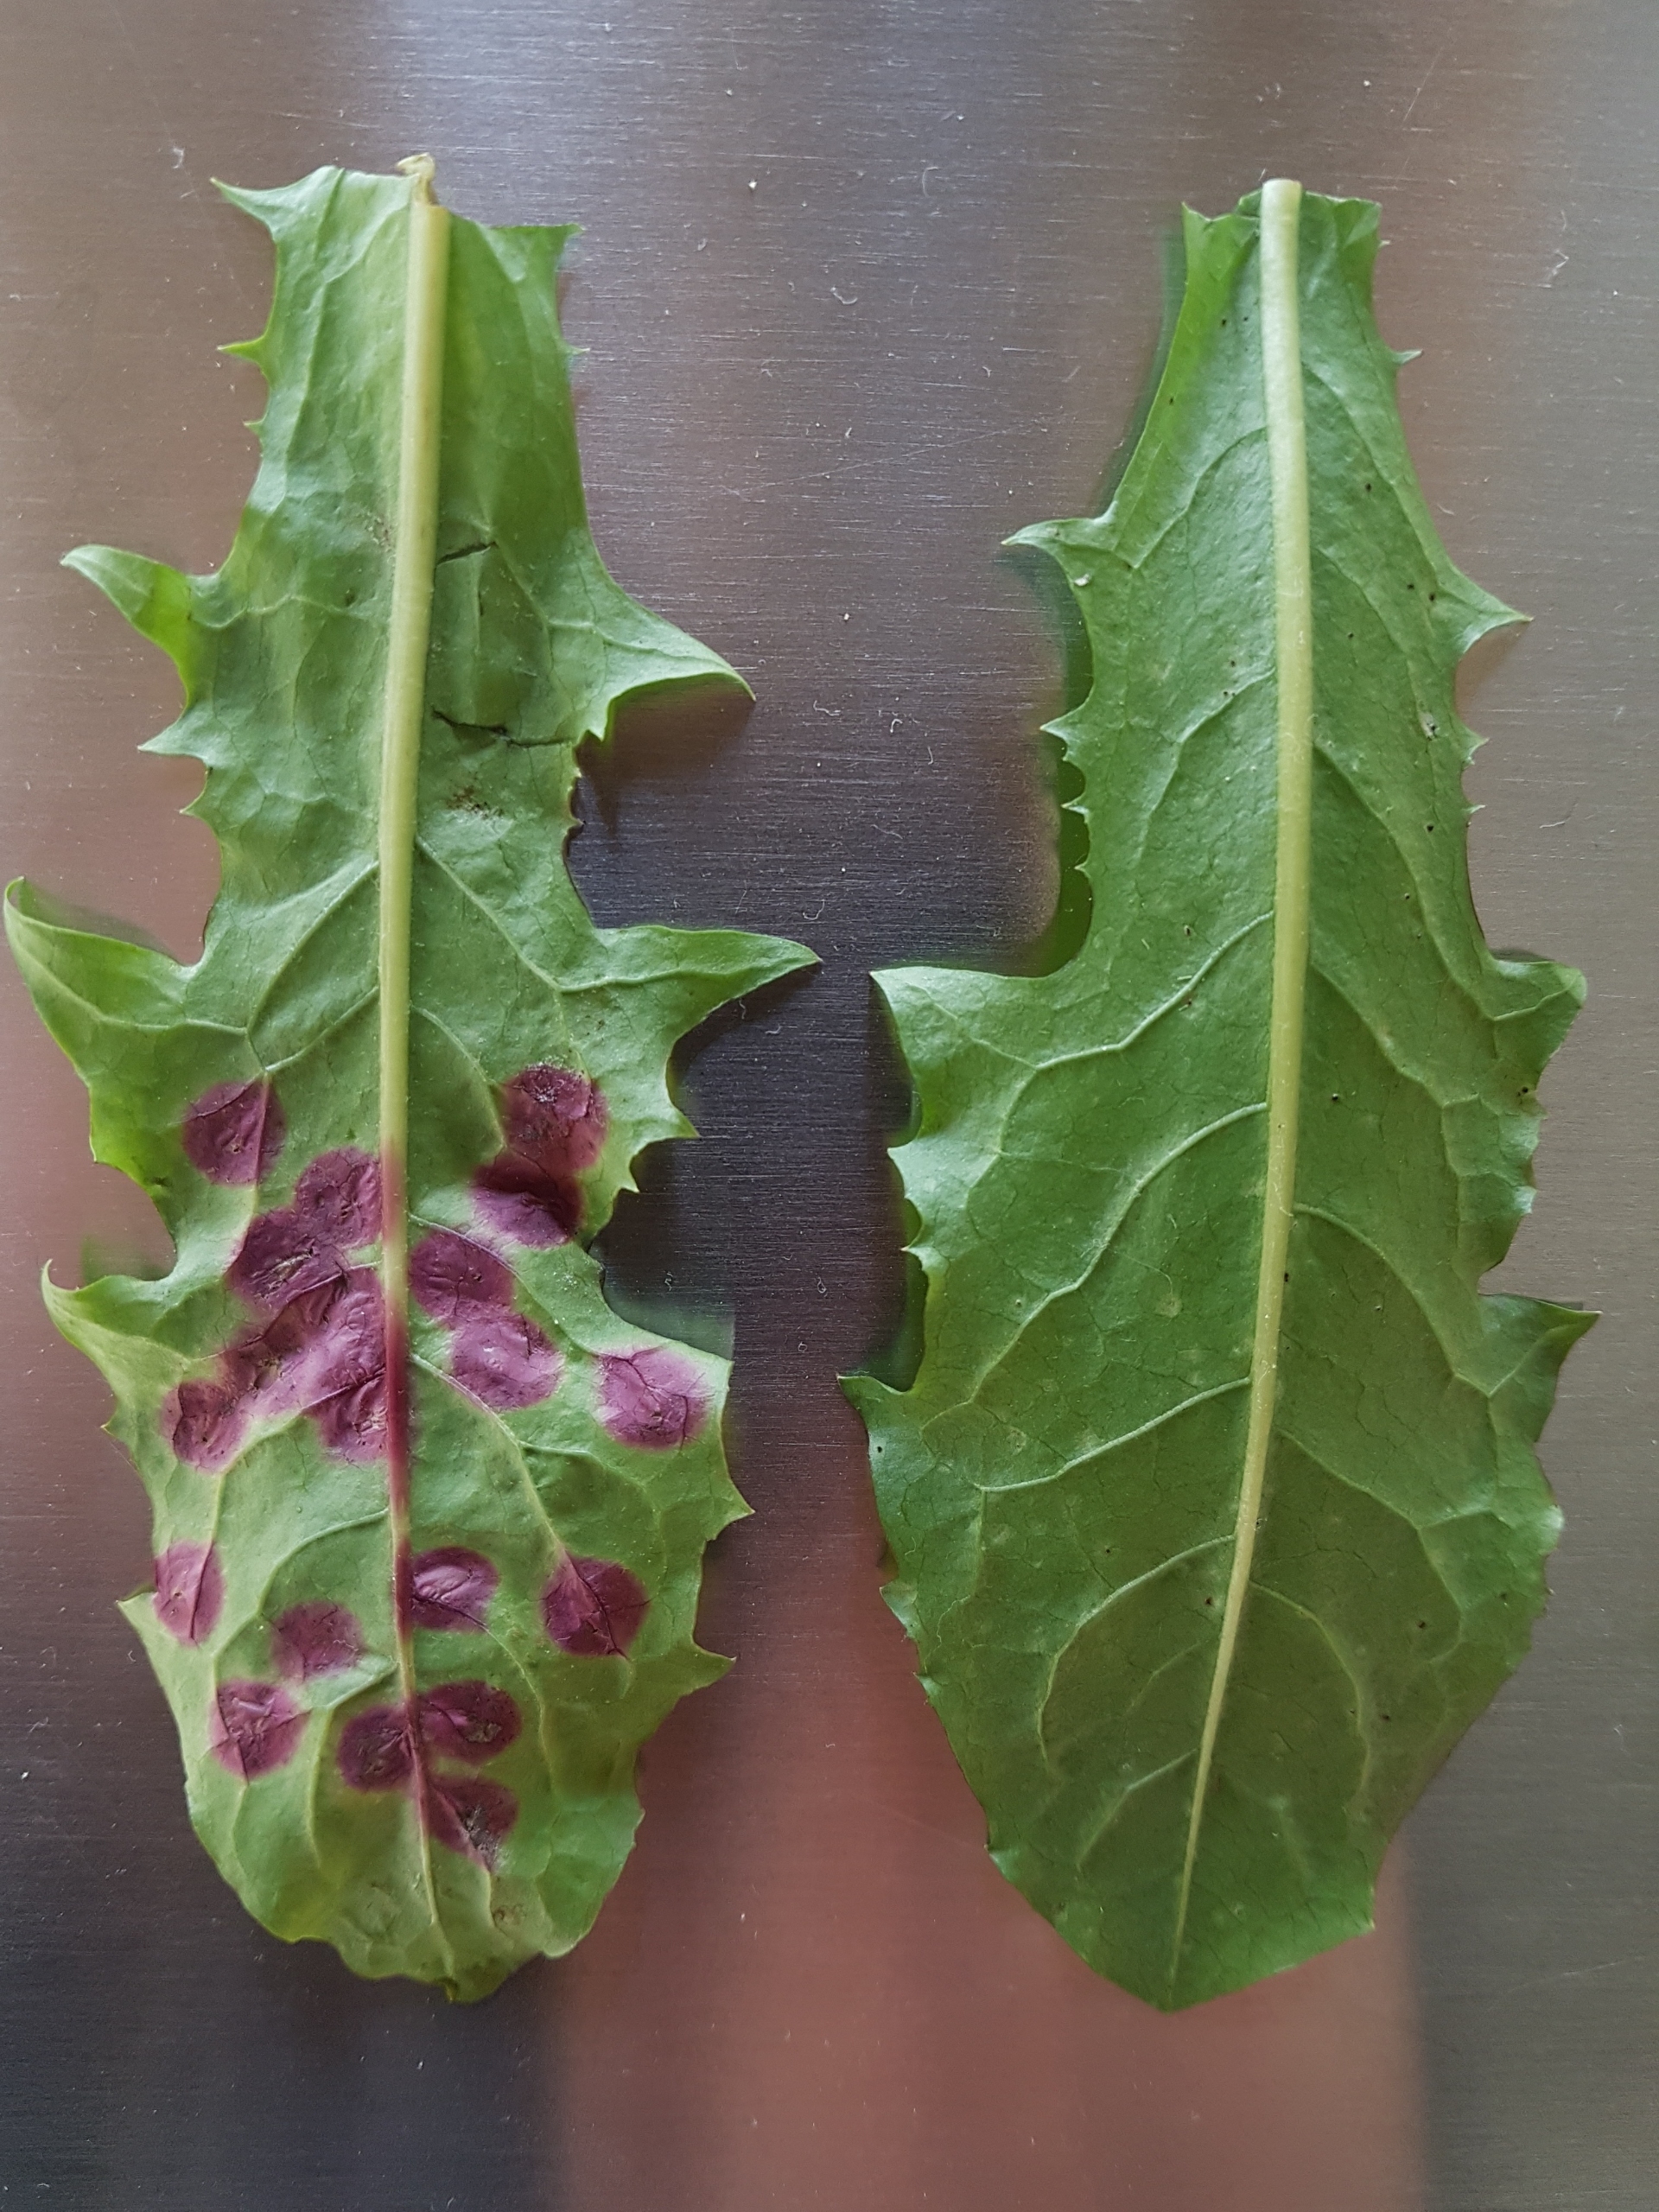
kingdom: Animalia
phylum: Arthropoda
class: Insecta
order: Diptera
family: Cecidomyiidae
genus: Cystiphora
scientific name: Cystiphora taraxaci
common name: Mælkebøttegalmyg
